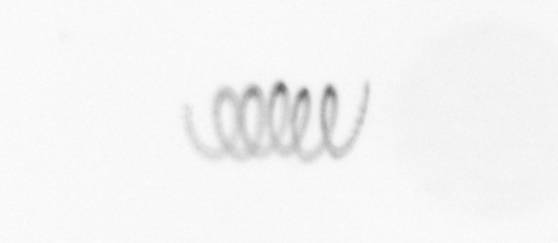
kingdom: Chromista
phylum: Ochrophyta
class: Bacillariophyceae
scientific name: Bacillariophyceae
